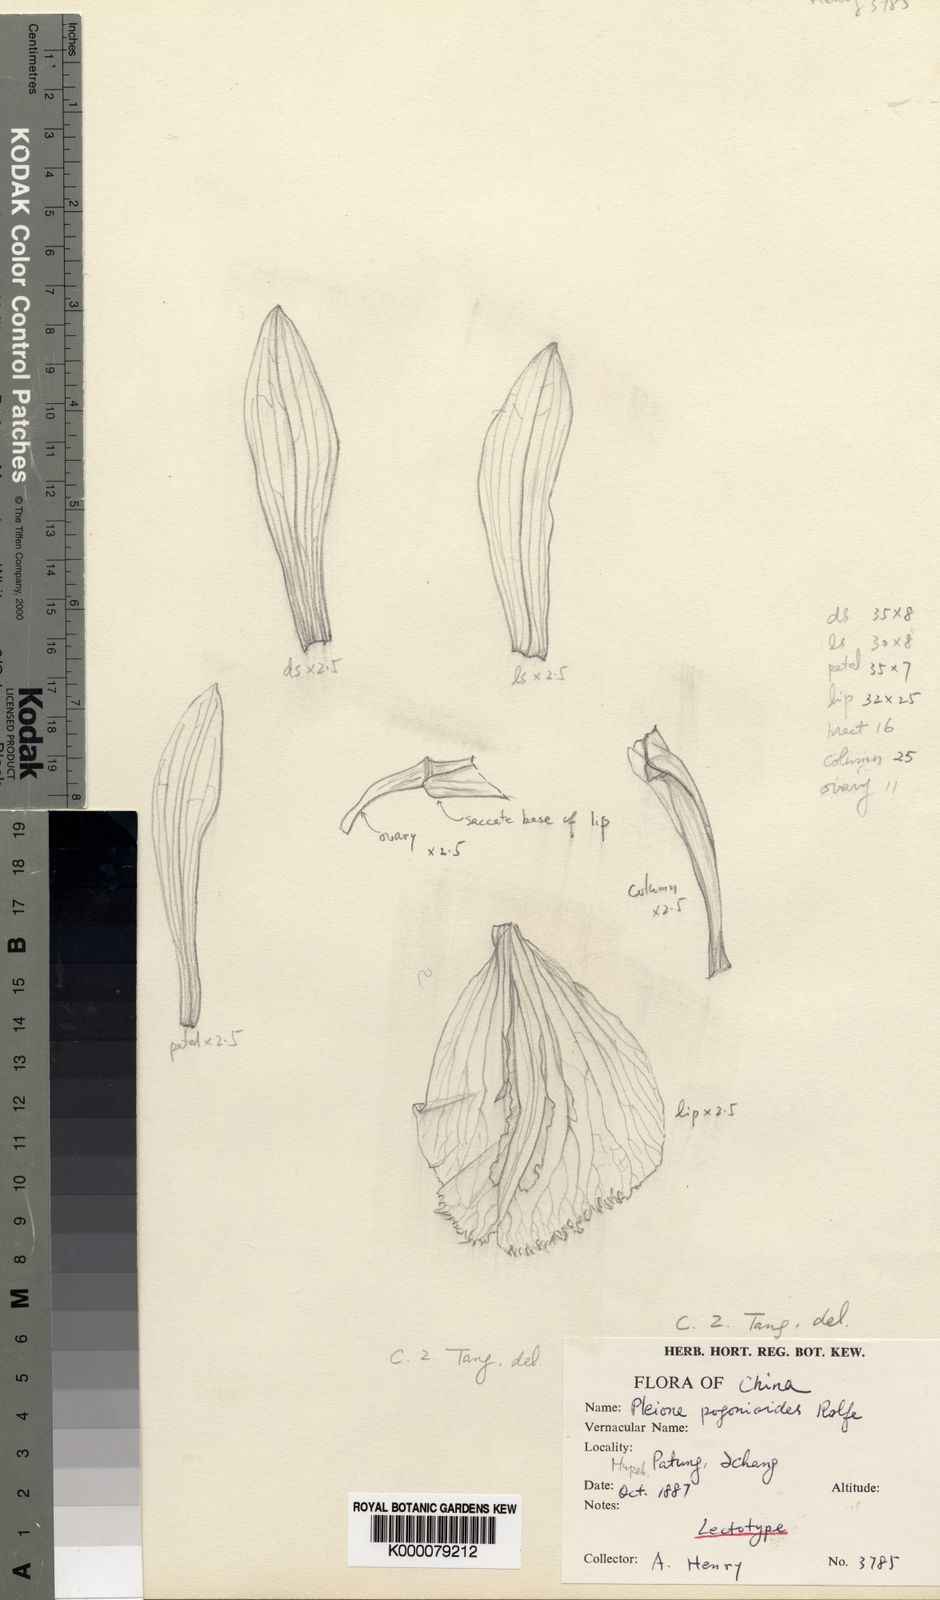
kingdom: Plantae
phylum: Tracheophyta
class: Liliopsida
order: Asparagales
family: Orchidaceae
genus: Pleione
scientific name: Pleione bulbocodioides
